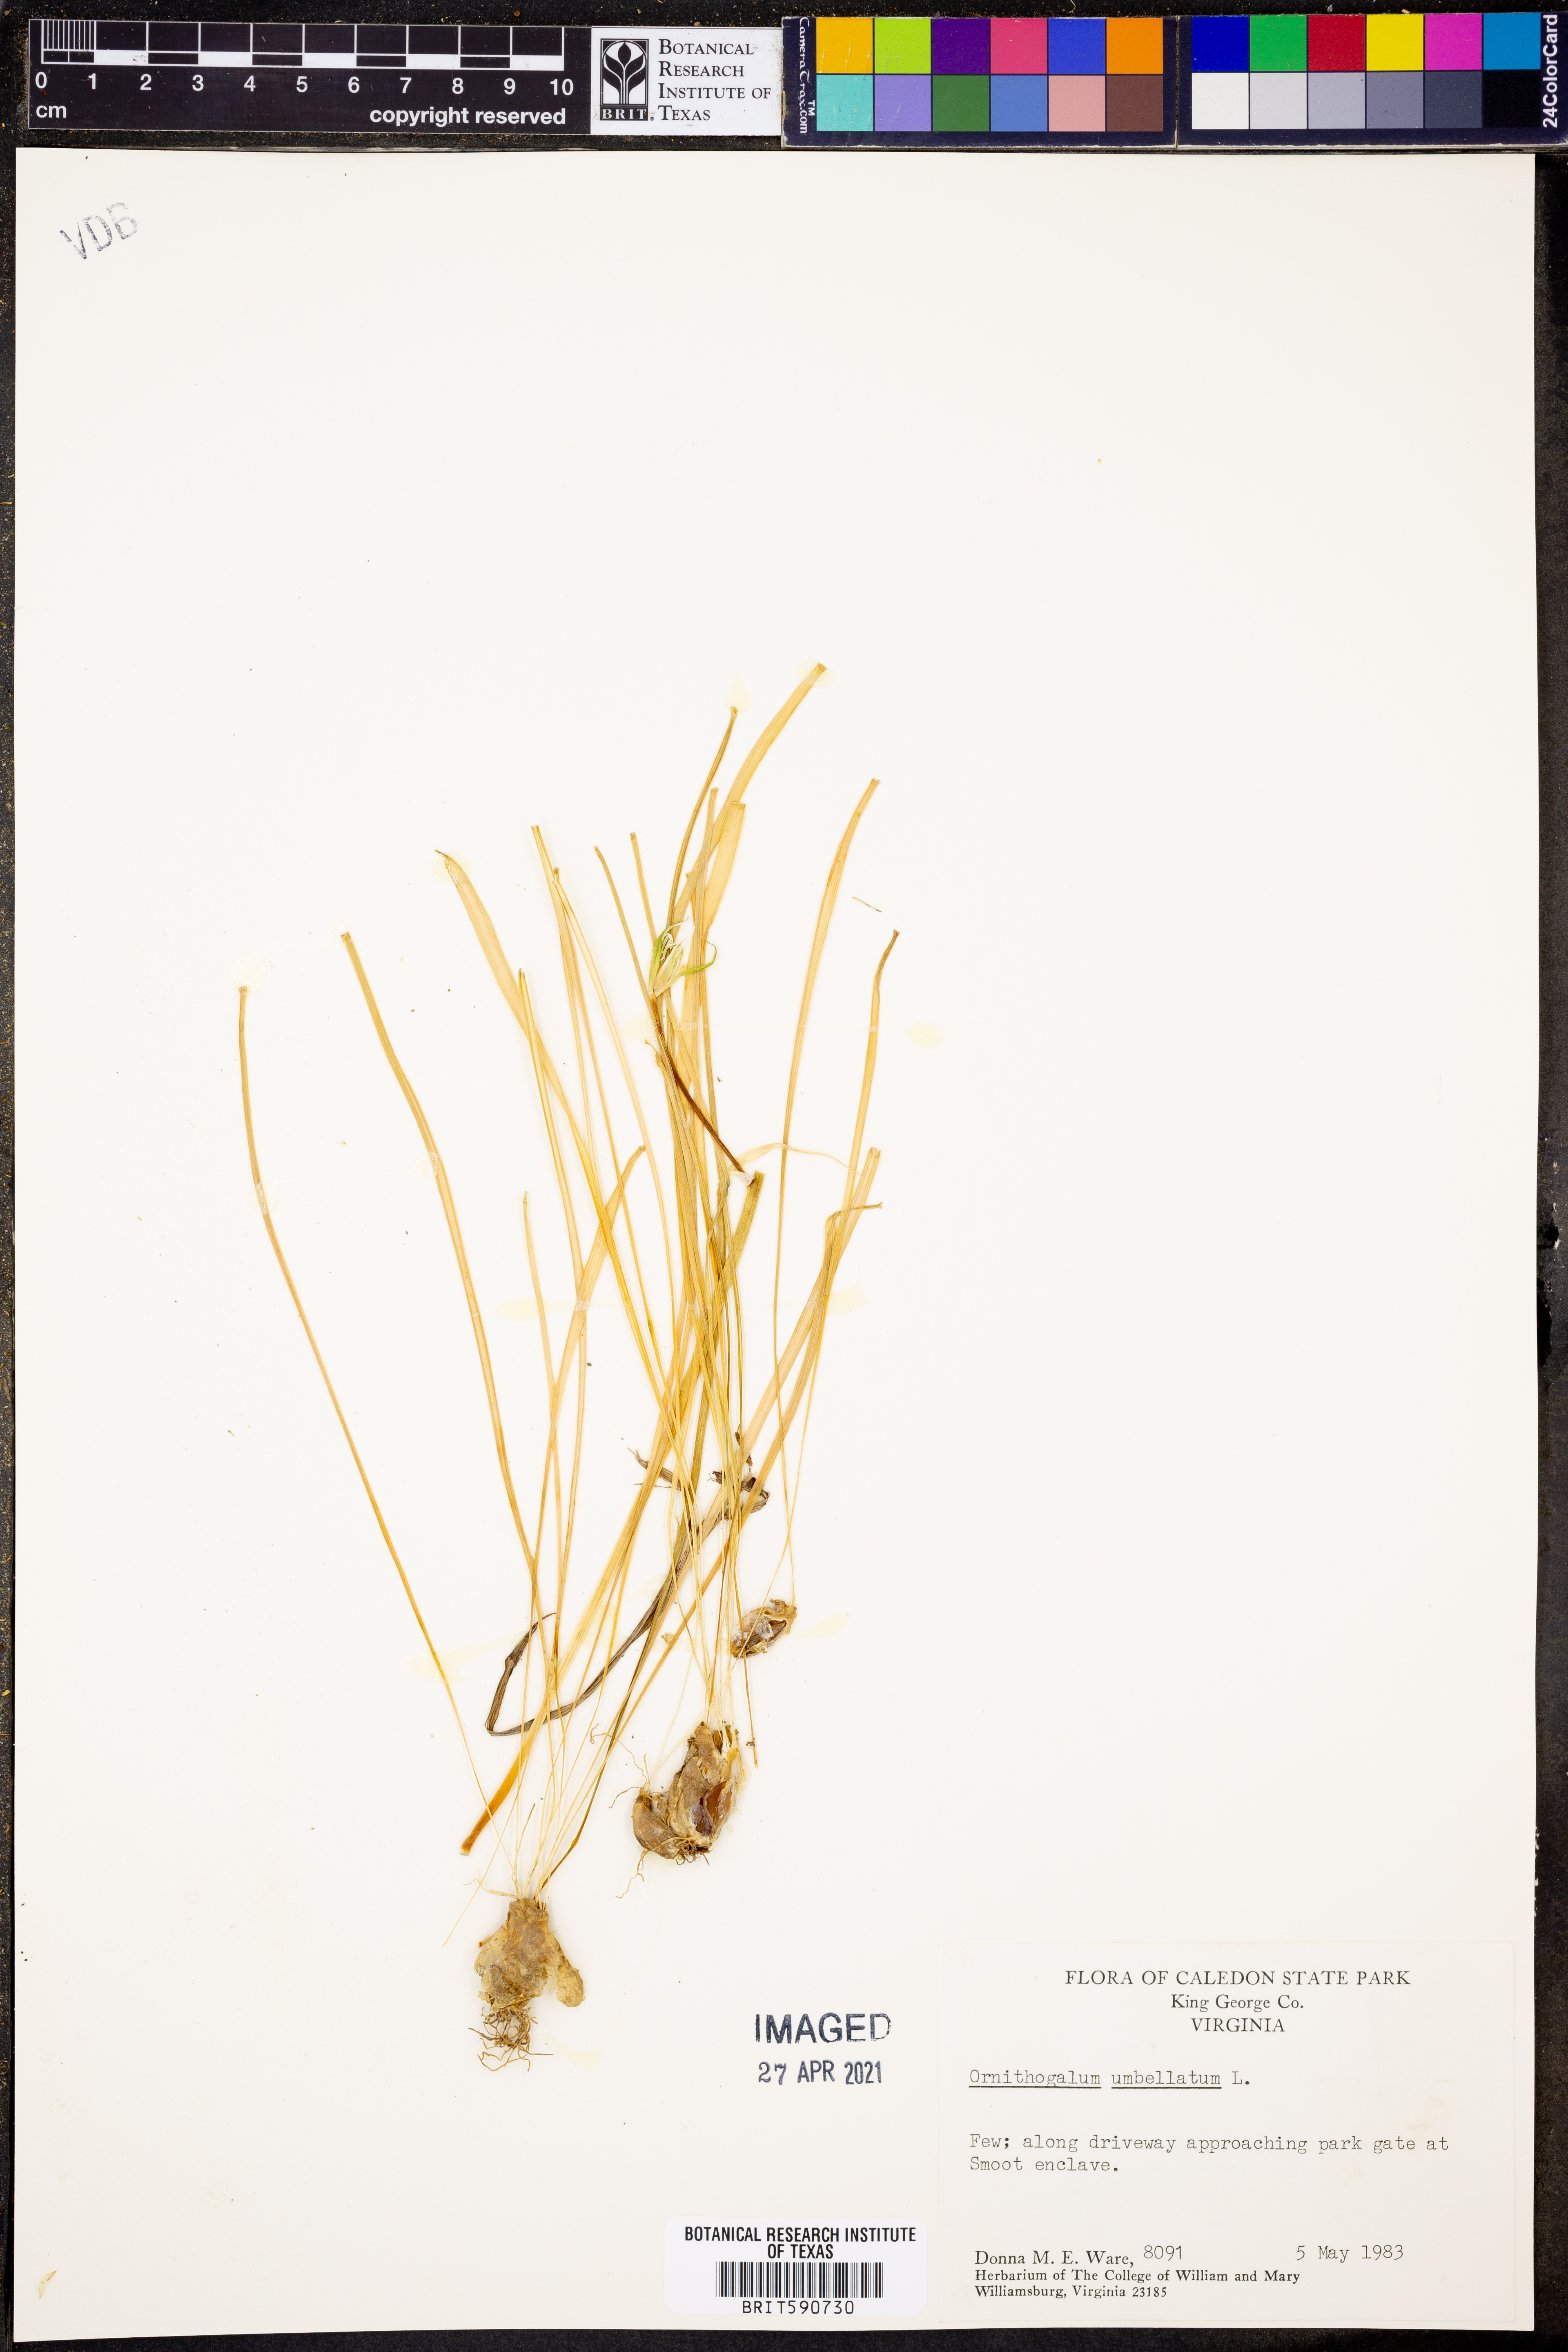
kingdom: Plantae
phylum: Tracheophyta
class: Liliopsida
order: Asparagales
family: Asparagaceae
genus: Ornithogalum
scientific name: Ornithogalum umbellatum
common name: Garden star-of-bethlehem
